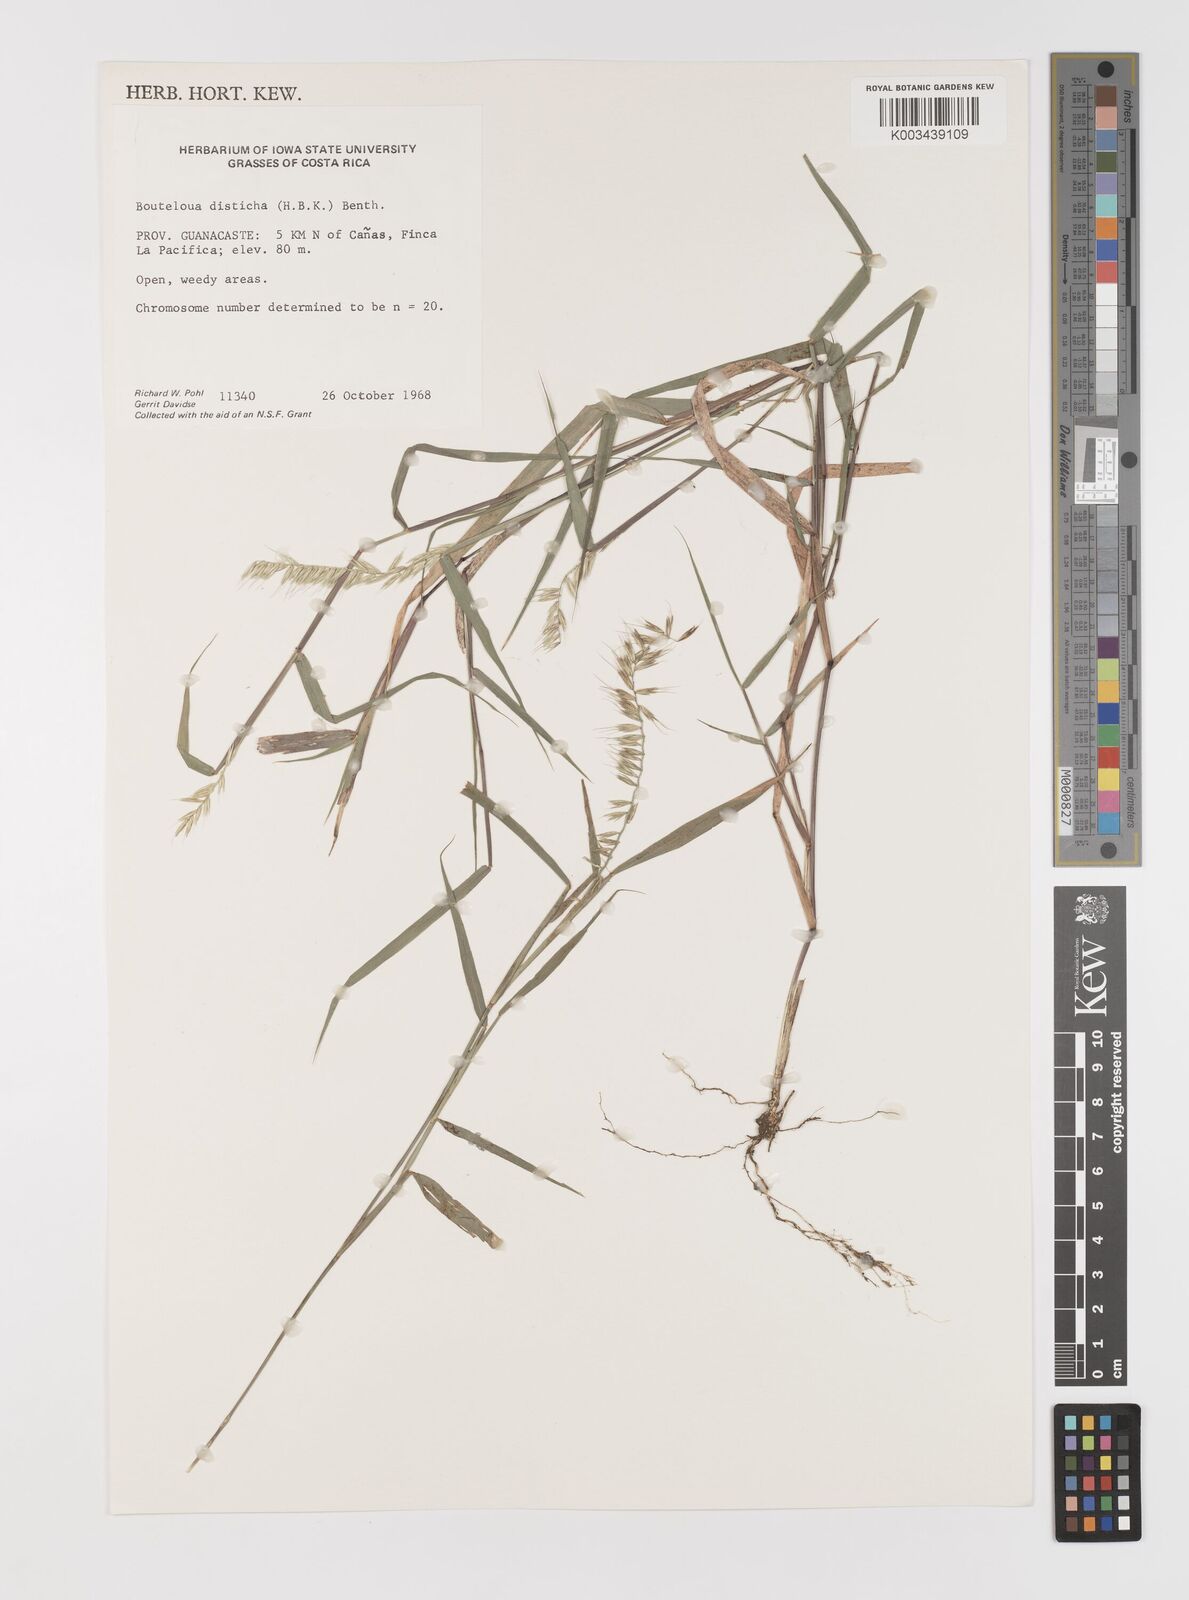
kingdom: Plantae
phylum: Tracheophyta
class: Liliopsida
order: Poales
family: Poaceae
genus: Bouteloua
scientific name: Bouteloua disticha
